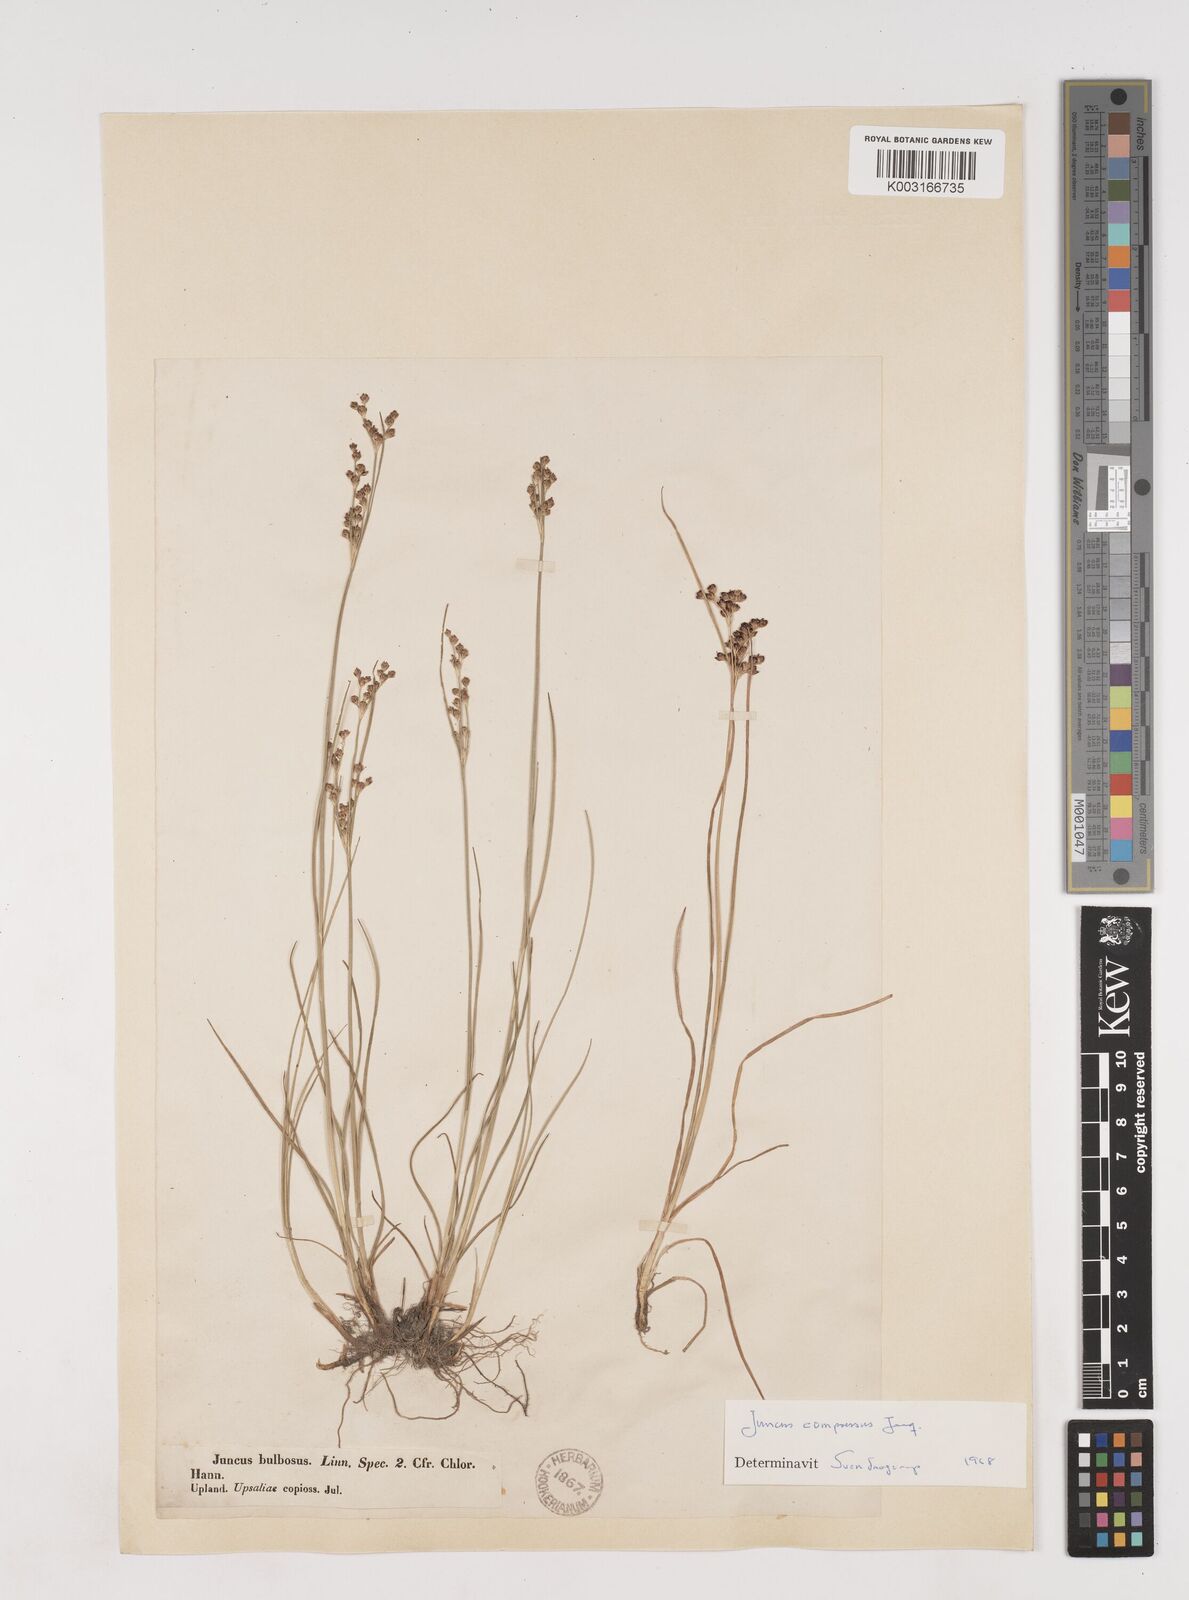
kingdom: Plantae
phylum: Tracheophyta
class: Liliopsida
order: Poales
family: Juncaceae
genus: Juncus
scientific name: Juncus
